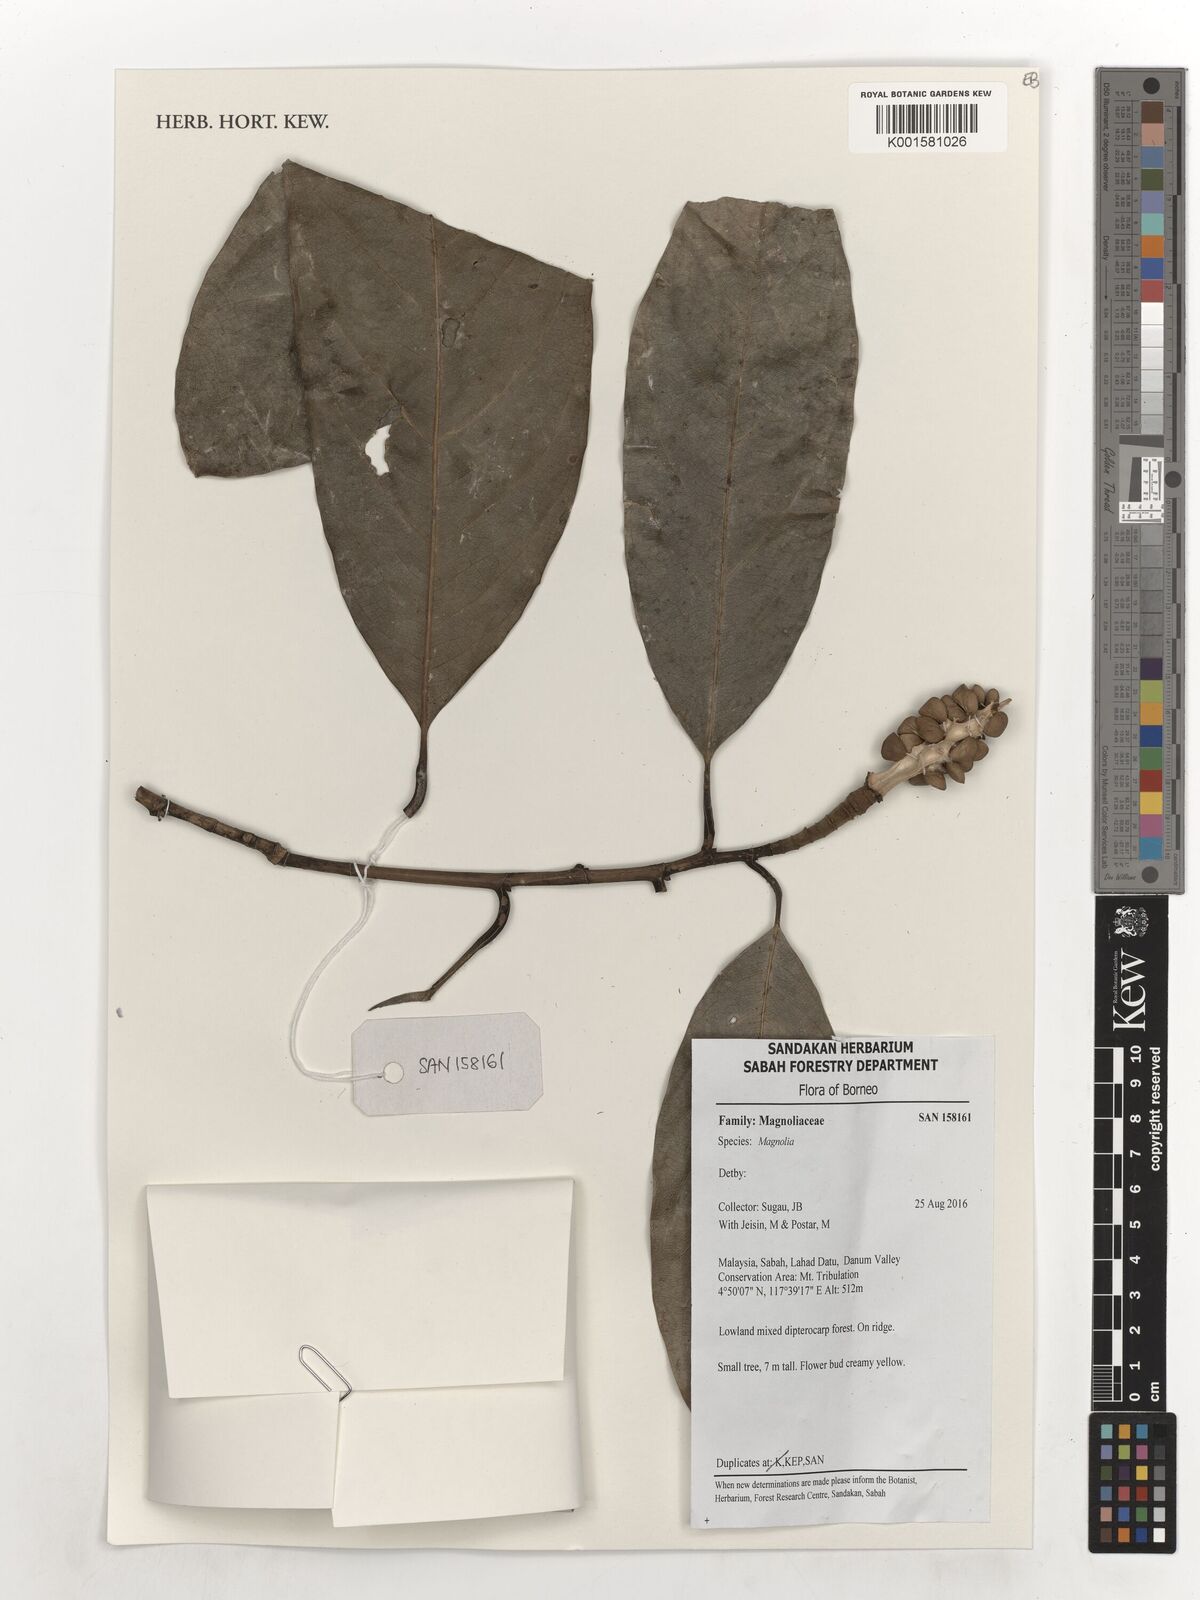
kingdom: Plantae
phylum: Tracheophyta
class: Magnoliopsida
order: Magnoliales
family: Magnoliaceae
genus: Magnolia
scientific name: Magnolia
